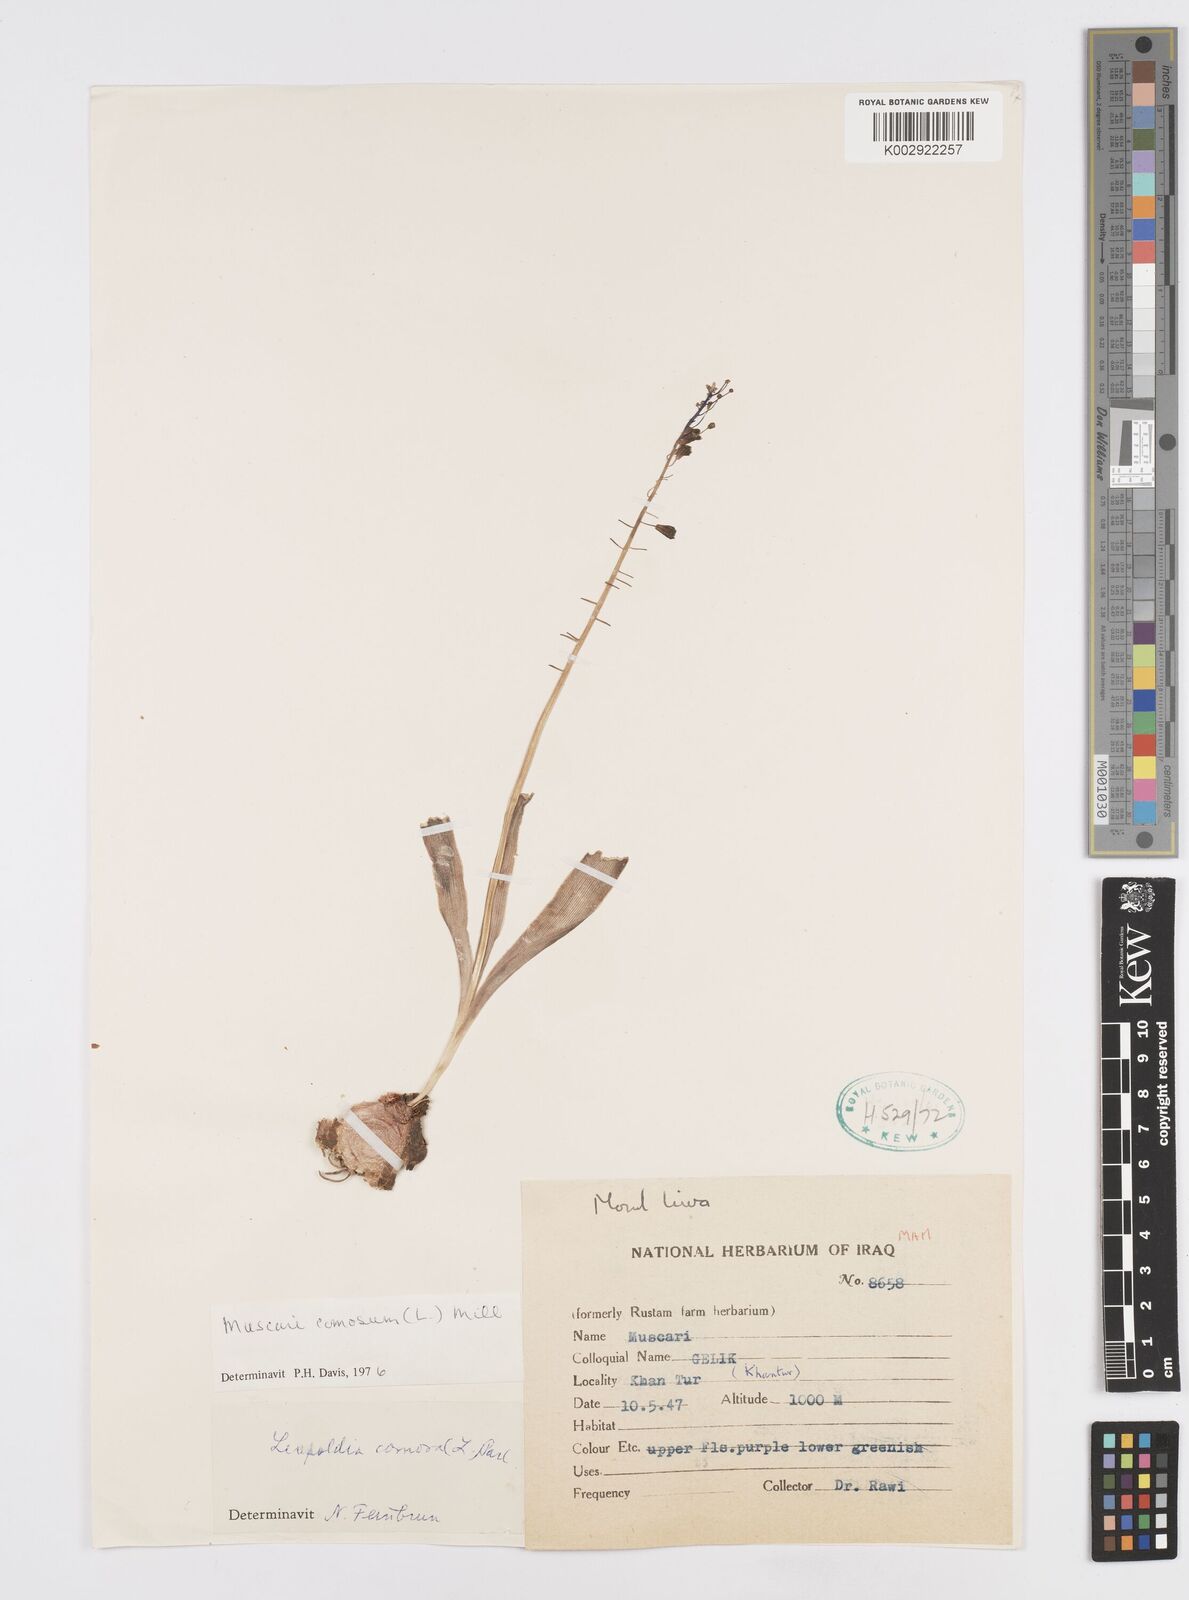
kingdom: Plantae
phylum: Tracheophyta
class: Liliopsida
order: Asparagales
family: Asparagaceae
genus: Muscari
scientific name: Muscari comosum
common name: Tassel hyacinth
